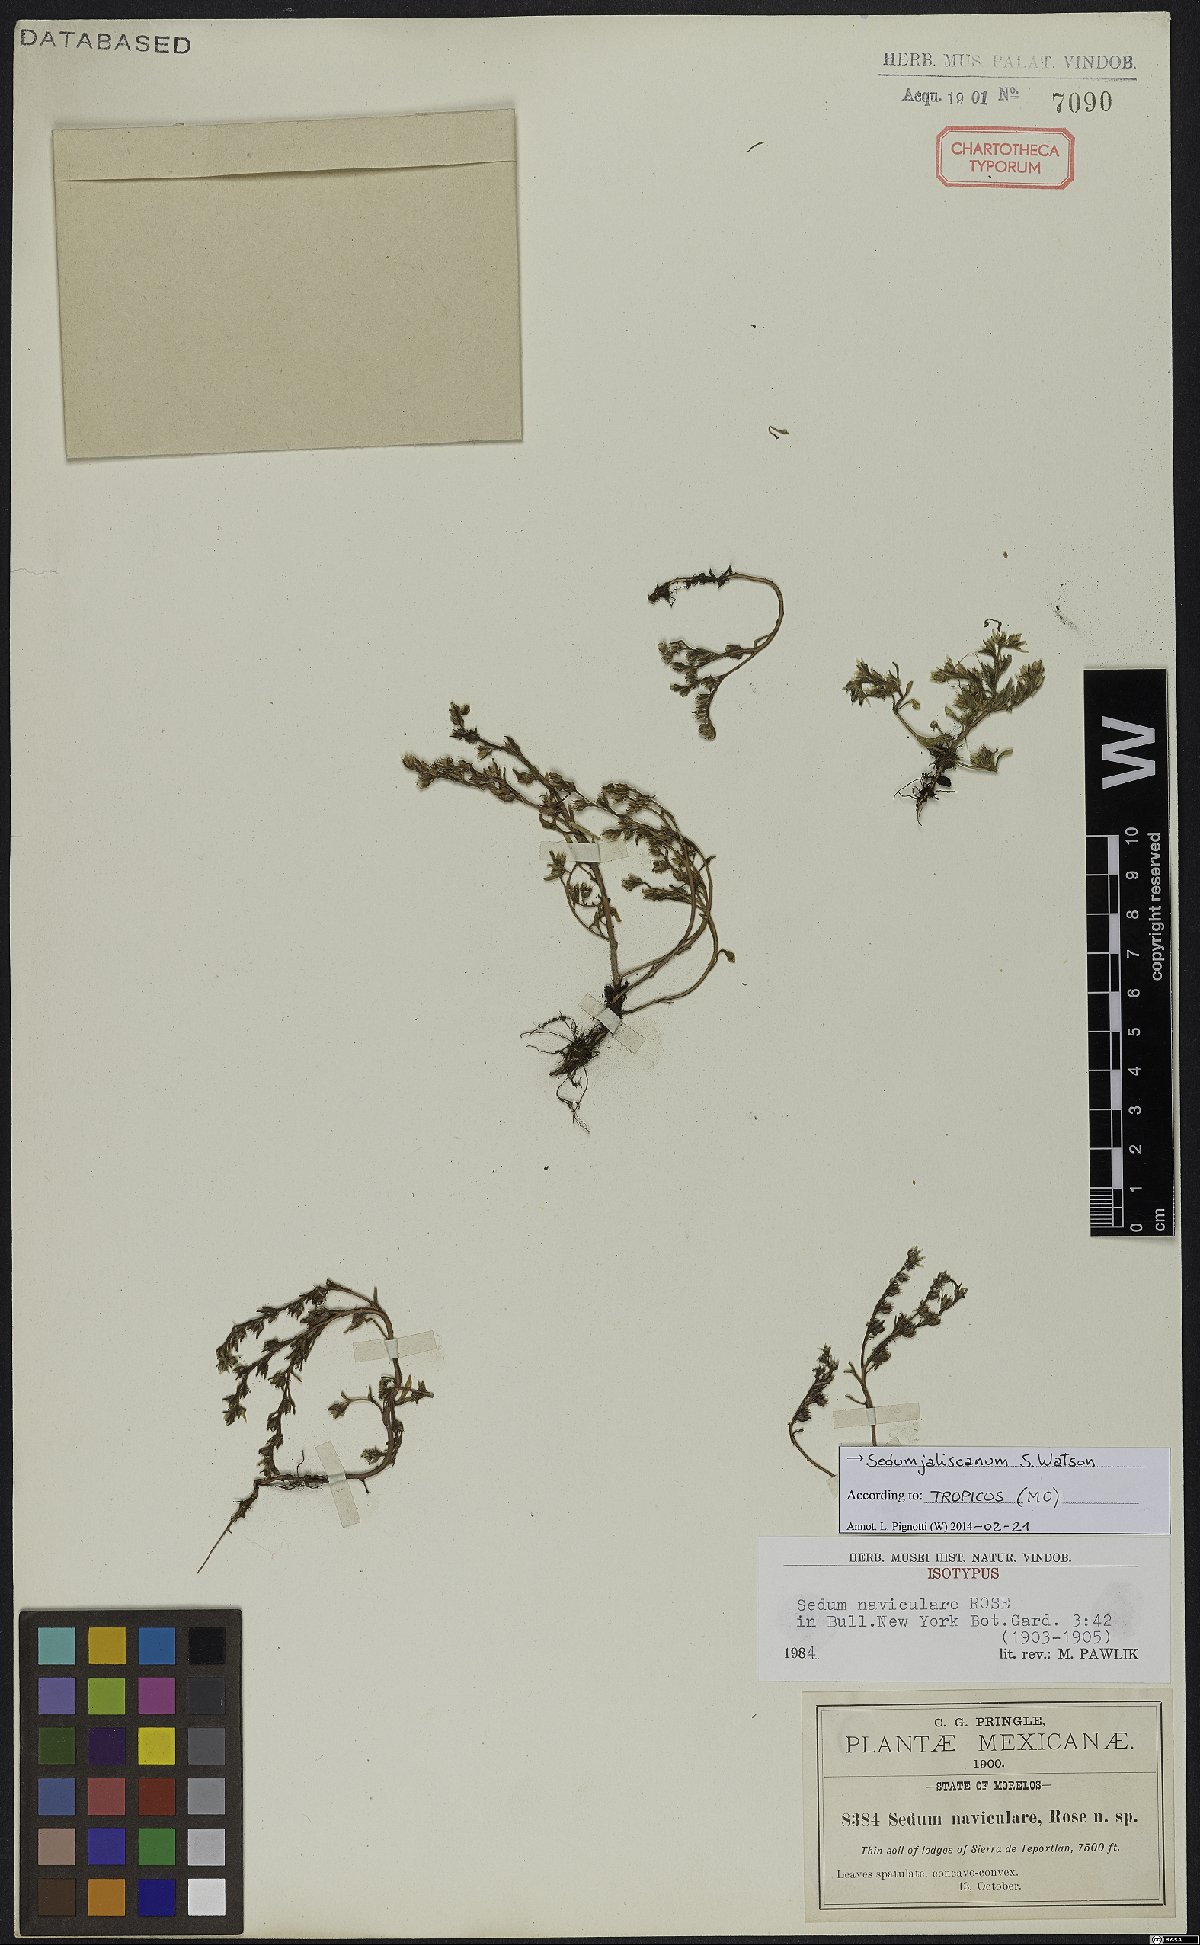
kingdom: Plantae
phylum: Tracheophyta
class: Magnoliopsida
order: Saxifragales
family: Crassulaceae
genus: Sedum
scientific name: Sedum jaliscanum
